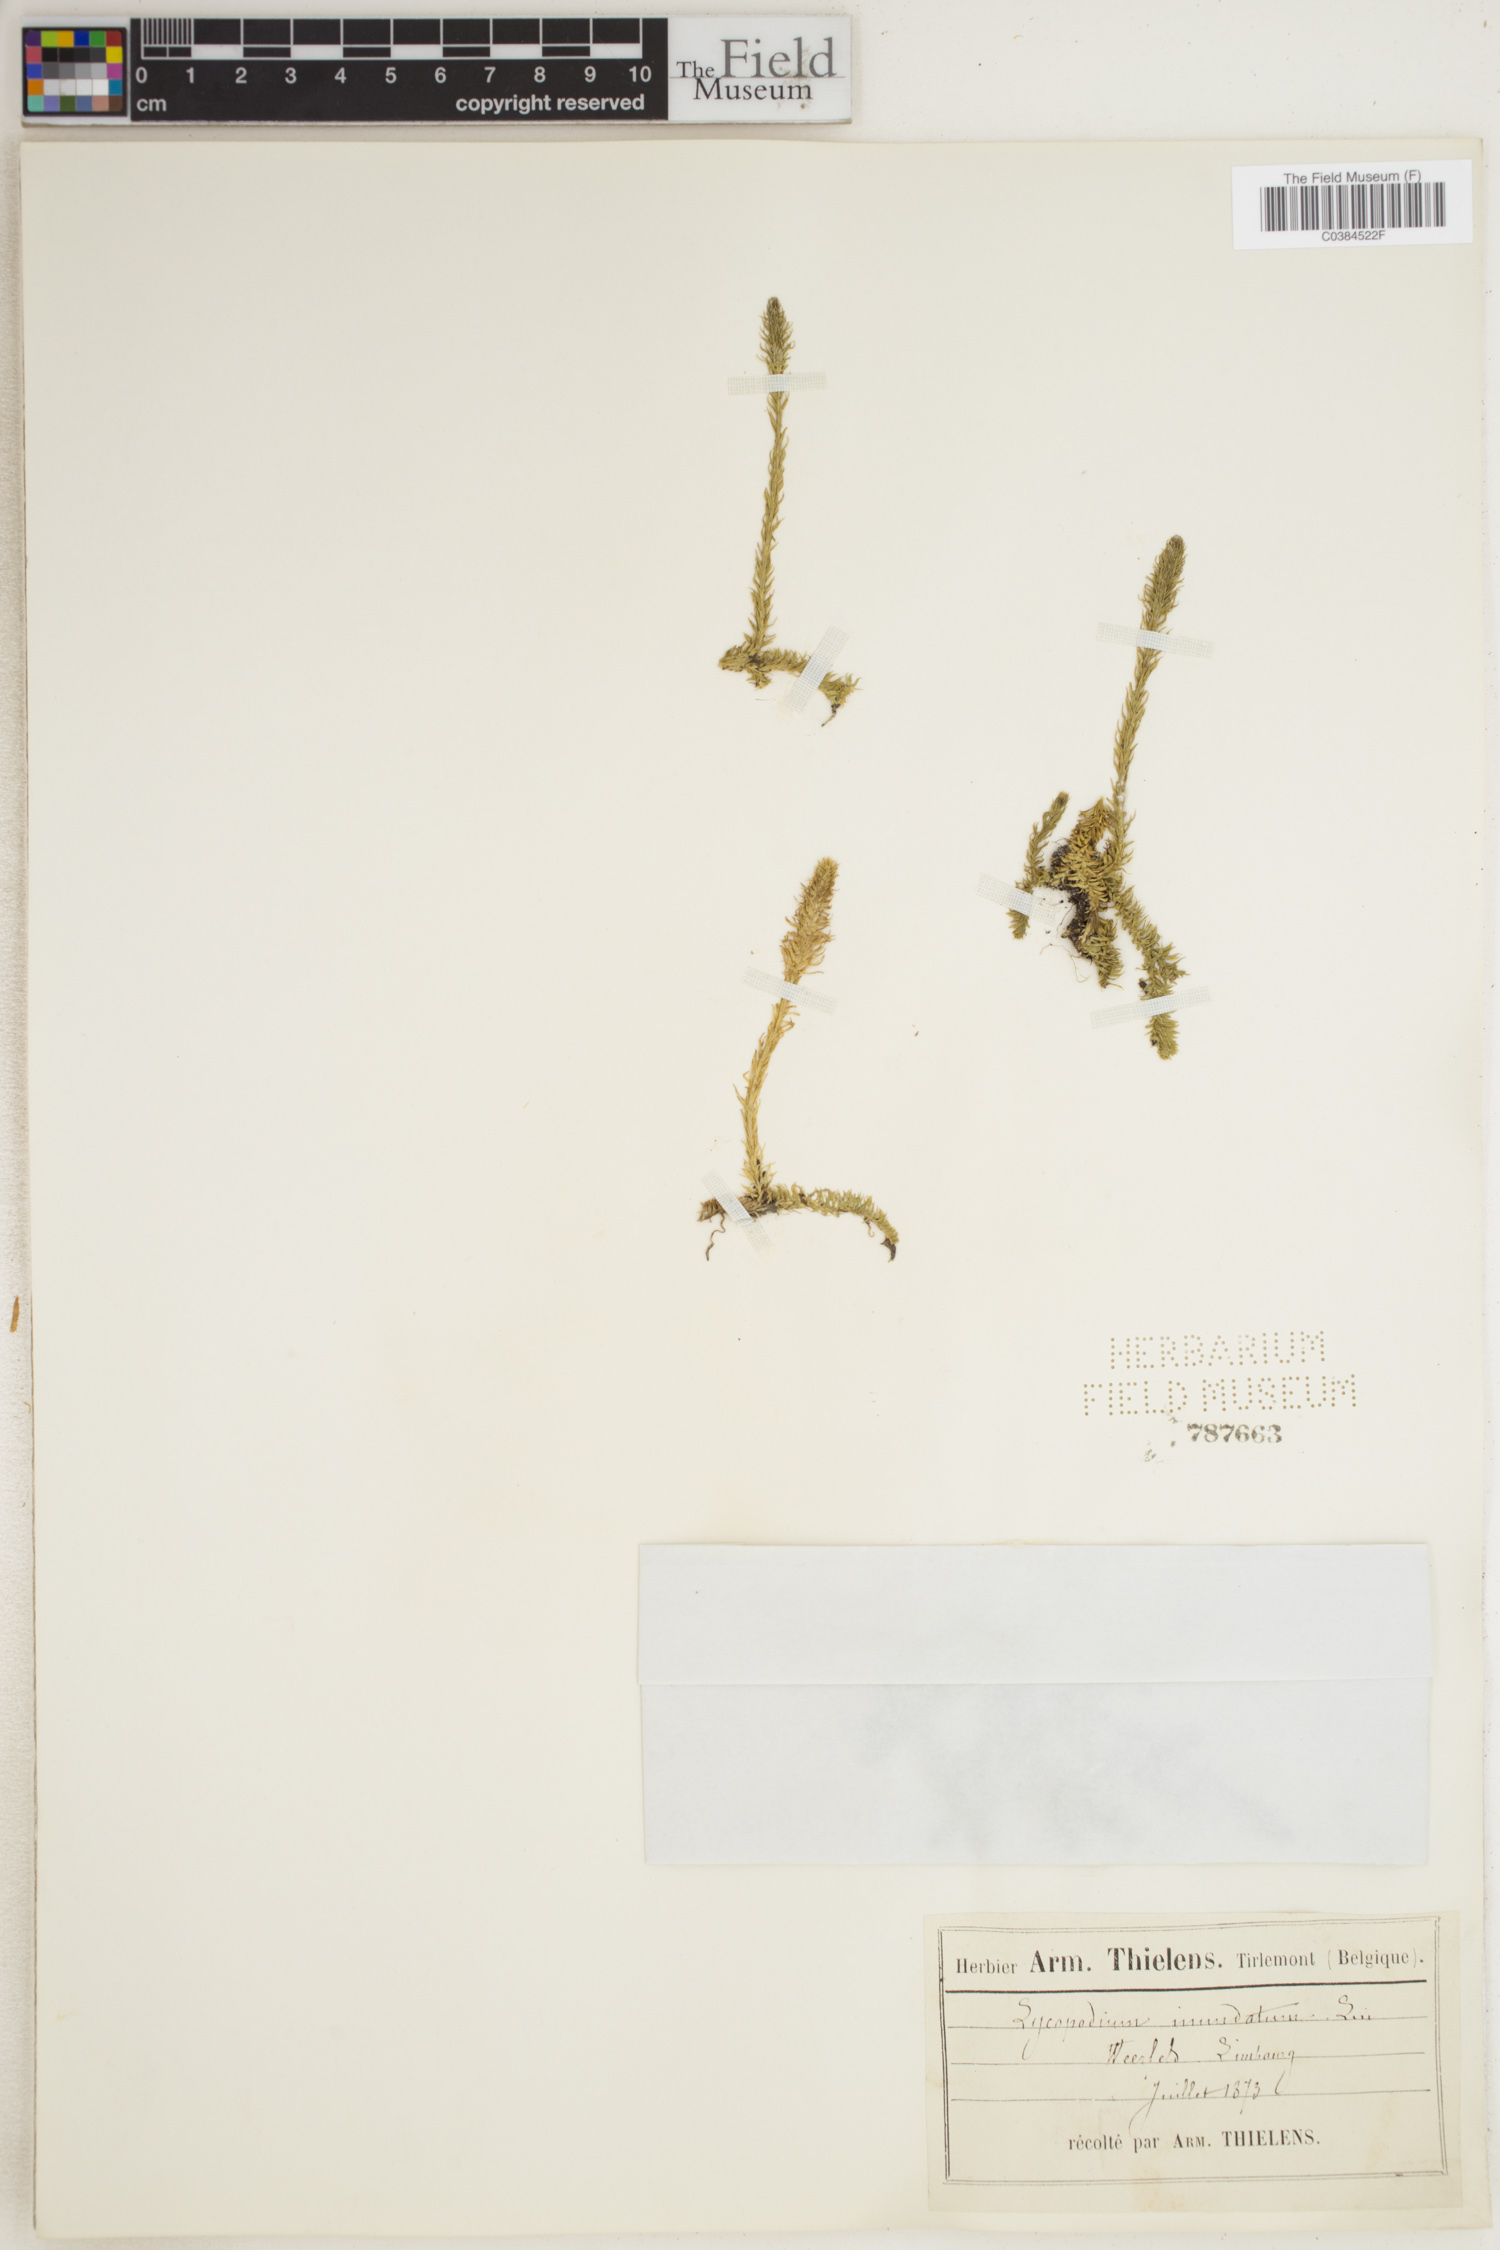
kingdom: Plantae
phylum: Tracheophyta
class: Lycopodiopsida
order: Lycopodiales
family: Lycopodiaceae
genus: Lycopodiella
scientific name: Lycopodiella inundata
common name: Marsh clubmoss
